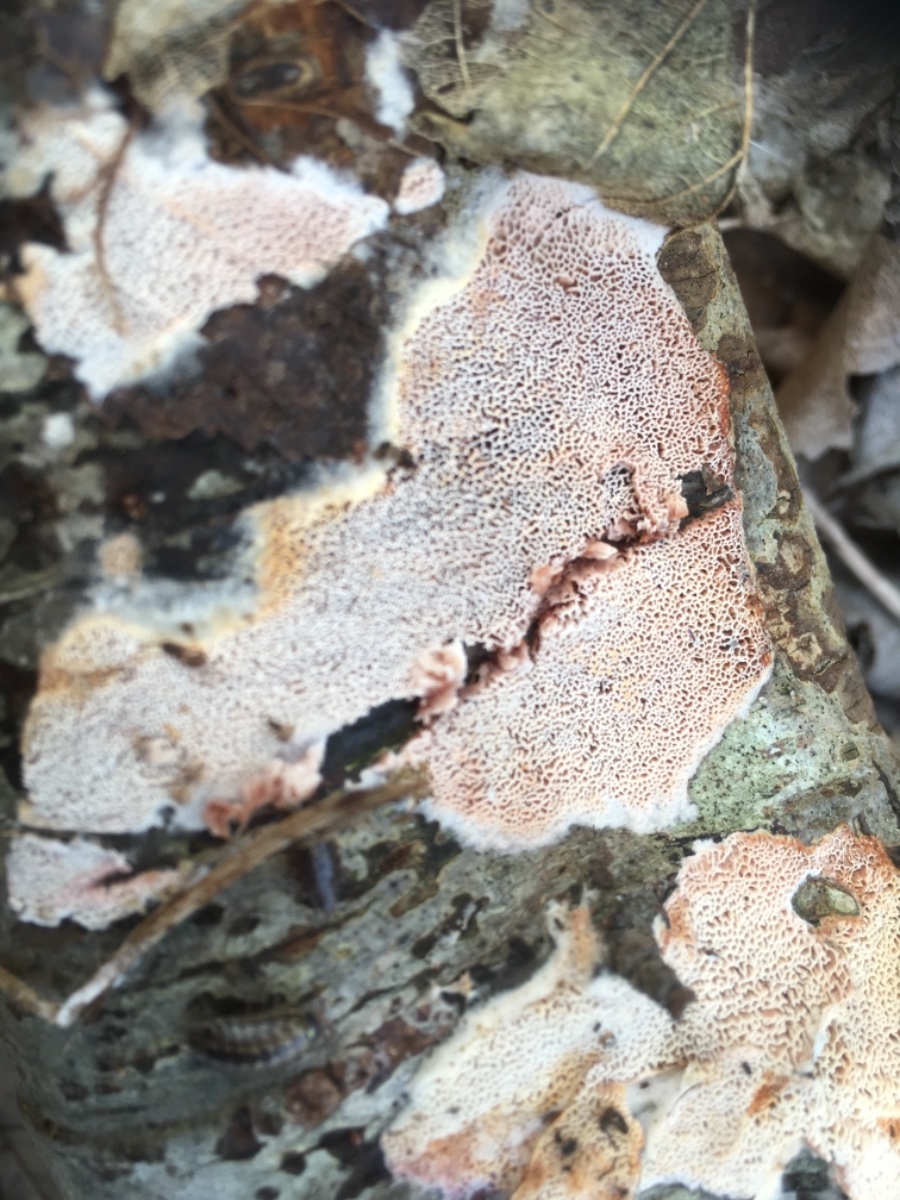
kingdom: Fungi
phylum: Basidiomycota
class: Agaricomycetes
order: Polyporales
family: Irpicaceae
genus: Ceriporia
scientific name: Ceriporia
